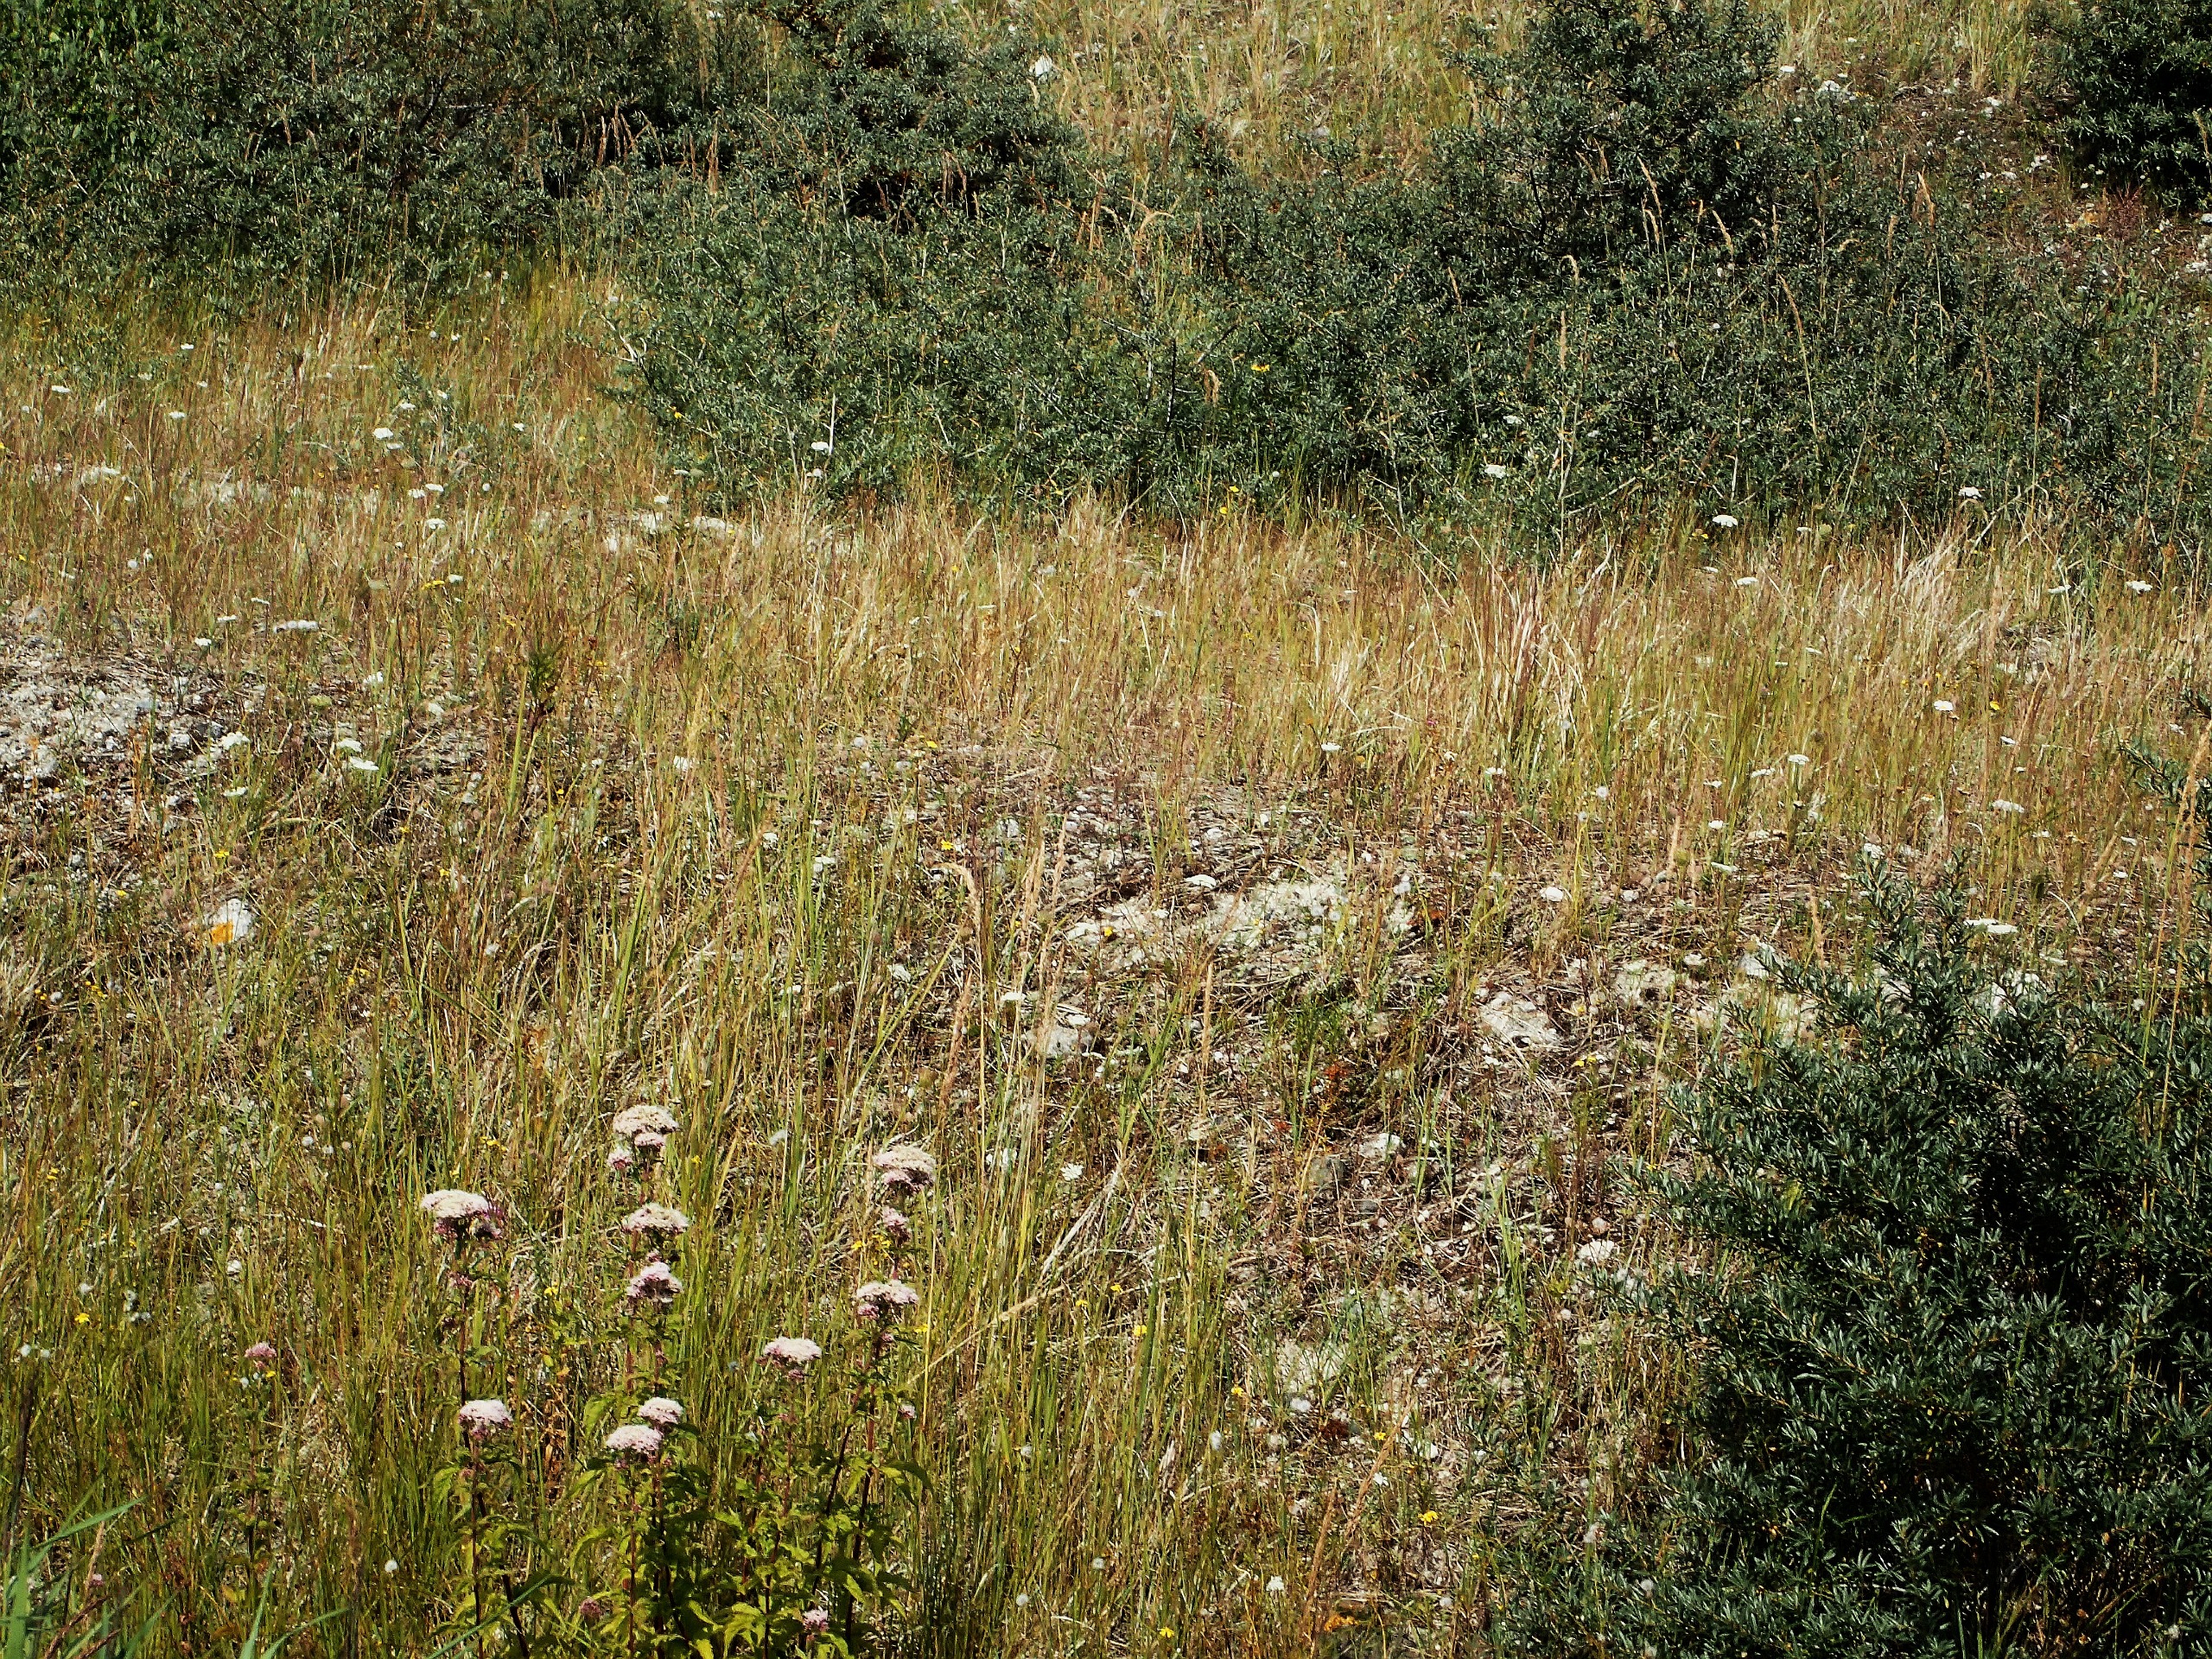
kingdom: Plantae
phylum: Tracheophyta
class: Magnoliopsida
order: Asterales
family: Asteraceae
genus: Eupatorium
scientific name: Eupatorium cannabinum
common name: Hjortetrøst
